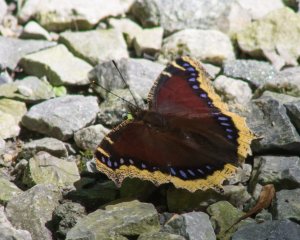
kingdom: Animalia
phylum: Arthropoda
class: Insecta
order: Lepidoptera
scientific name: Lepidoptera
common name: Butterflies
